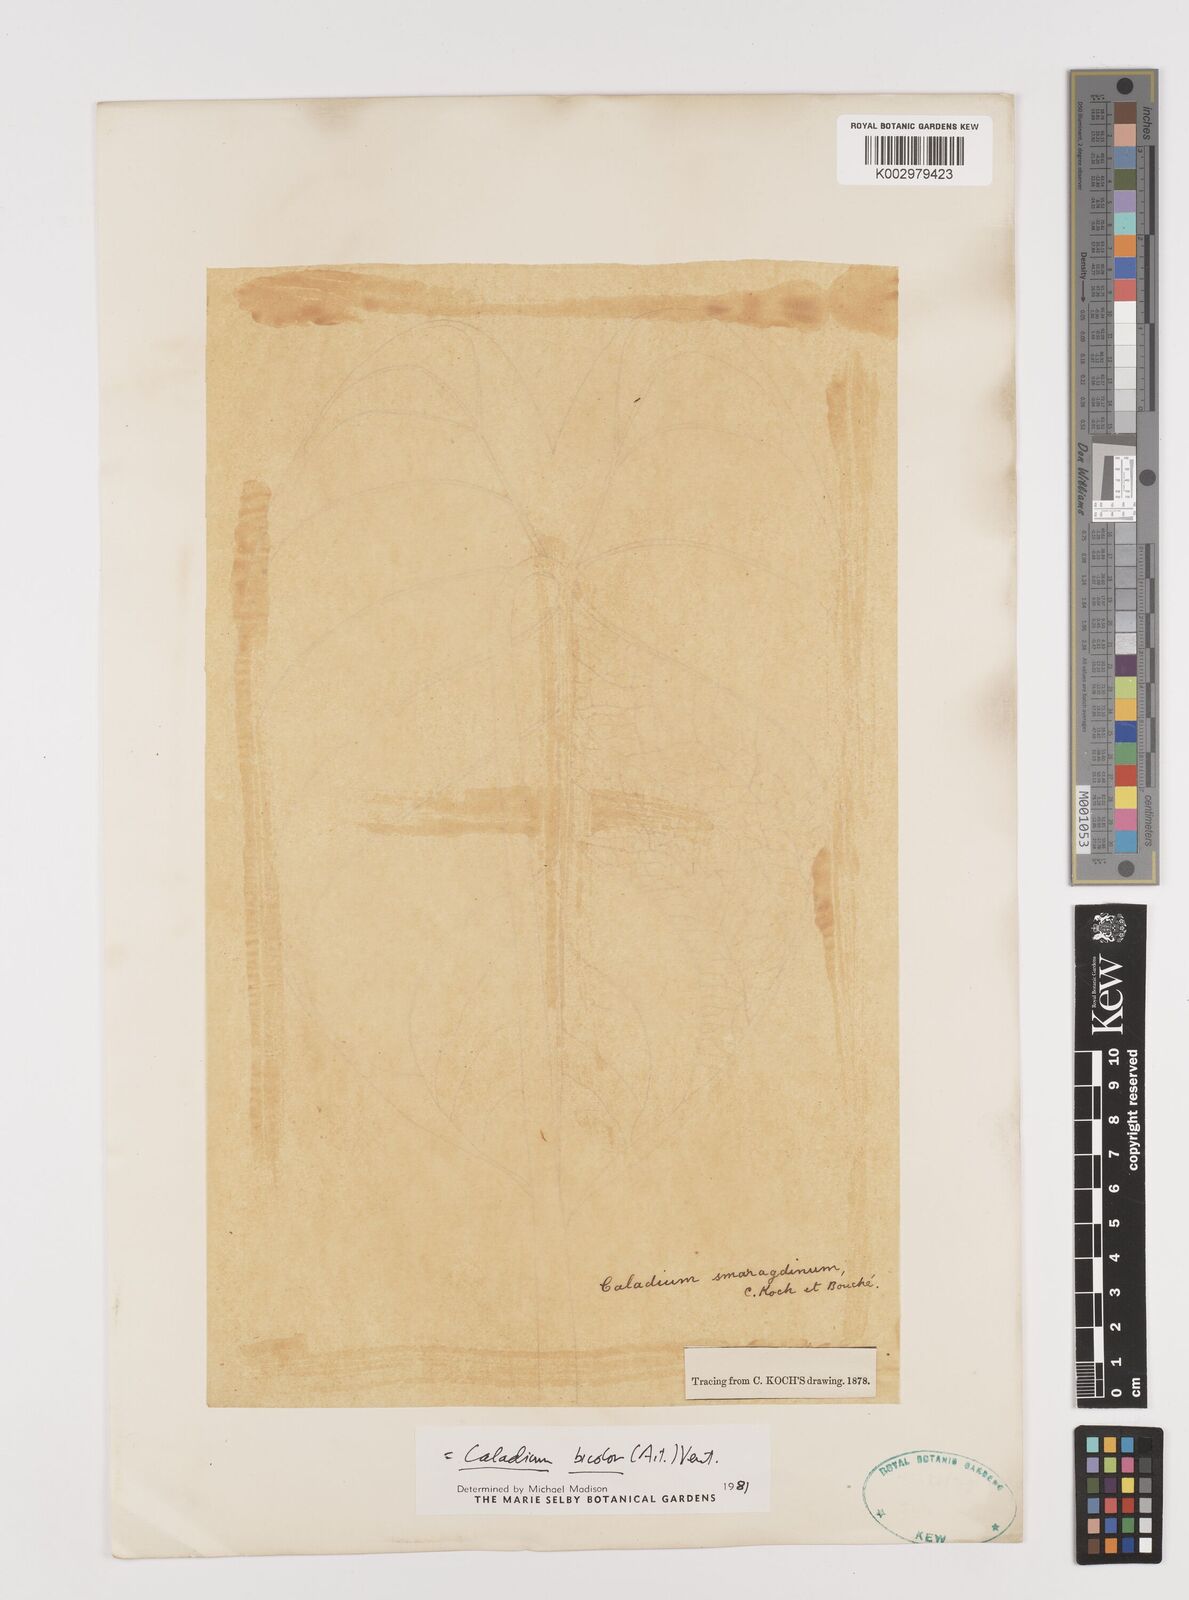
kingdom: Plantae
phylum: Tracheophyta
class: Liliopsida
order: Alismatales
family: Araceae
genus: Caladium
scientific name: Caladium bicolor
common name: Artist's pallet
